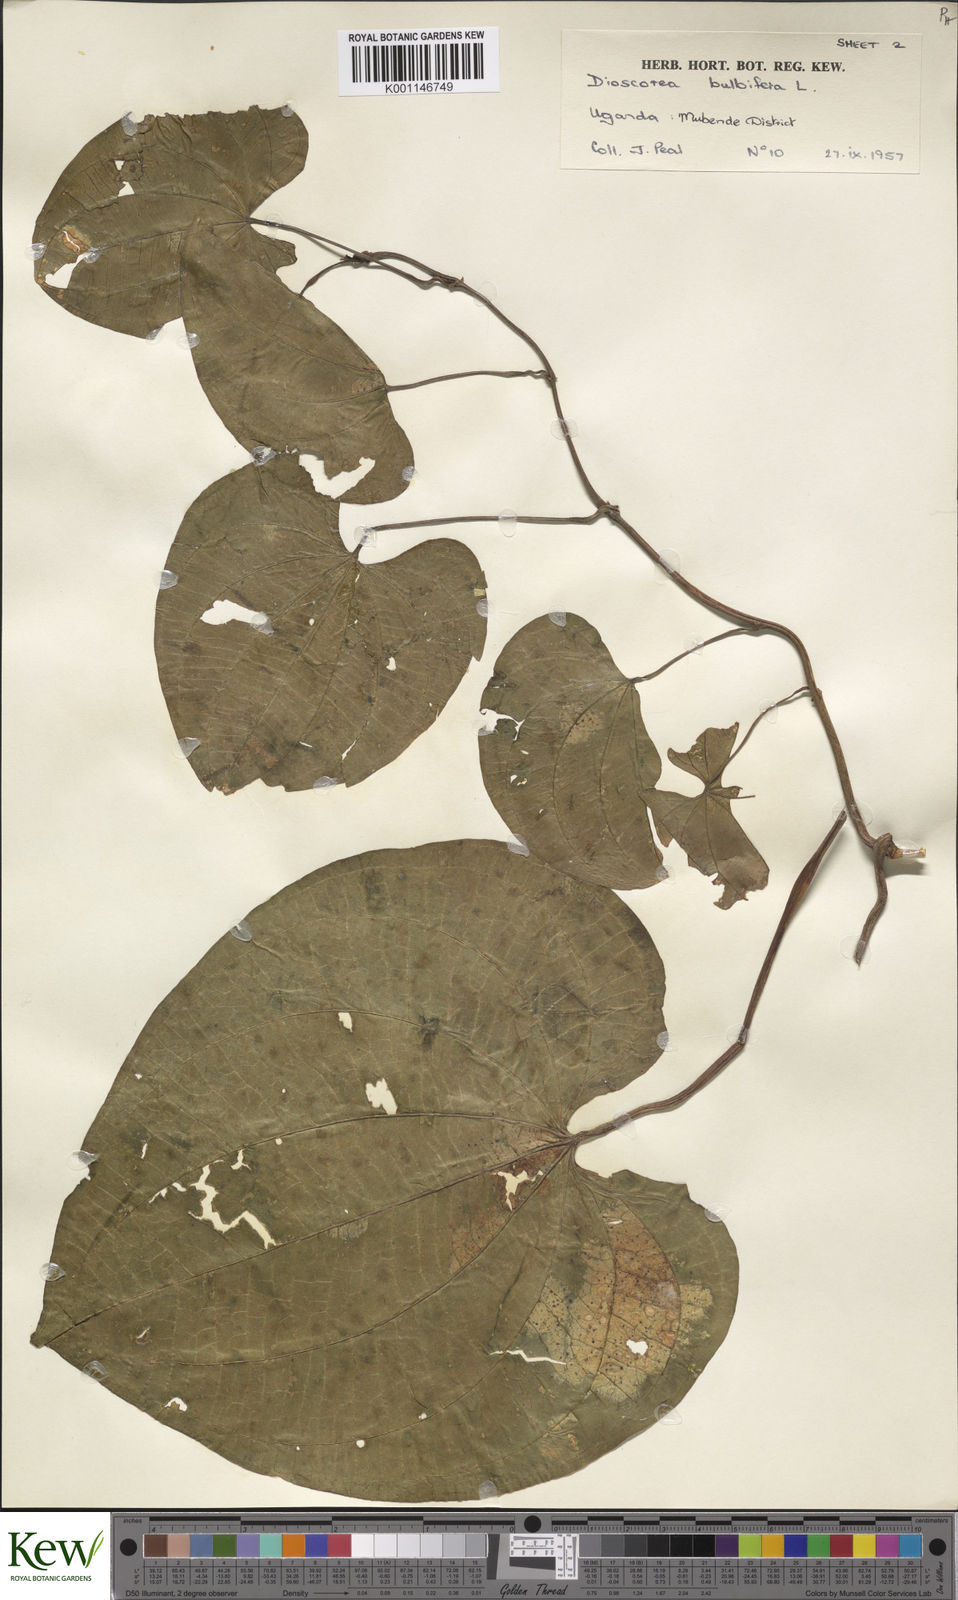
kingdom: Plantae
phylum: Tracheophyta
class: Liliopsida
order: Dioscoreales
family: Dioscoreaceae
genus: Dioscorea
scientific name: Dioscorea bulbifera
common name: Air yam
